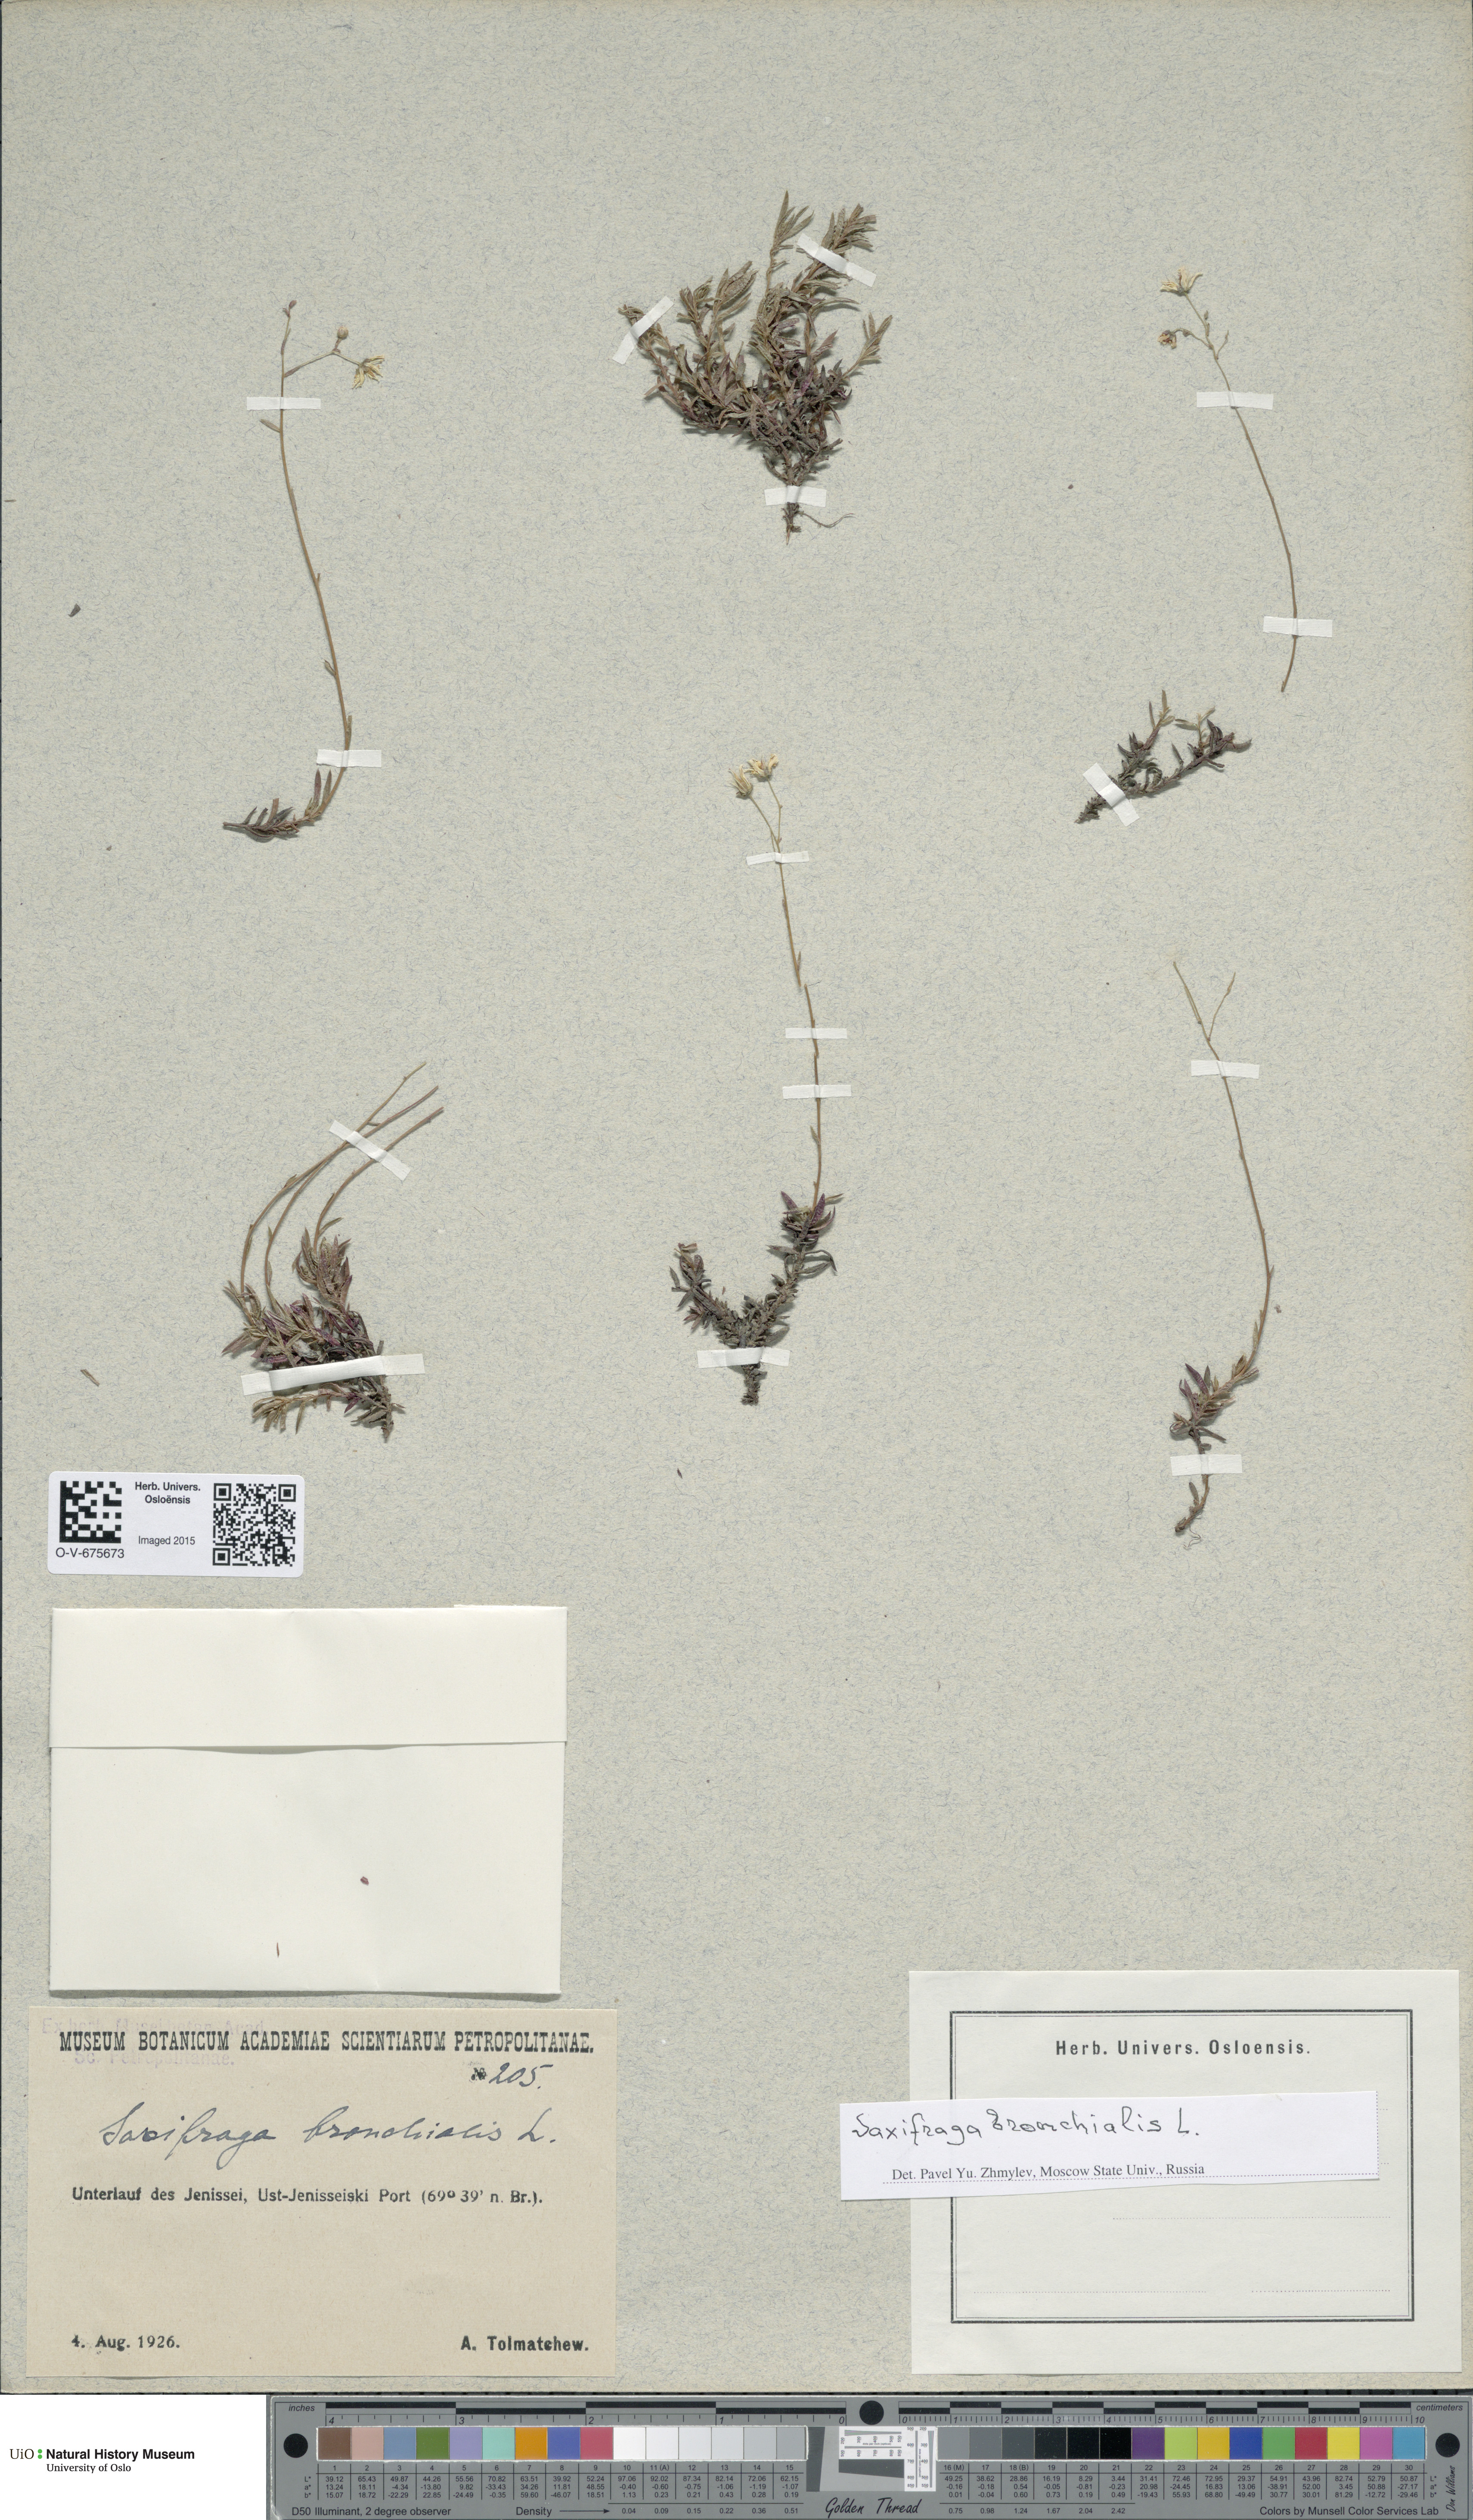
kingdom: Plantae
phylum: Tracheophyta
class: Magnoliopsida
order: Saxifragales
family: Saxifragaceae
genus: Saxifraga
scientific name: Saxifraga bronchialis
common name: Matted saxifrage
